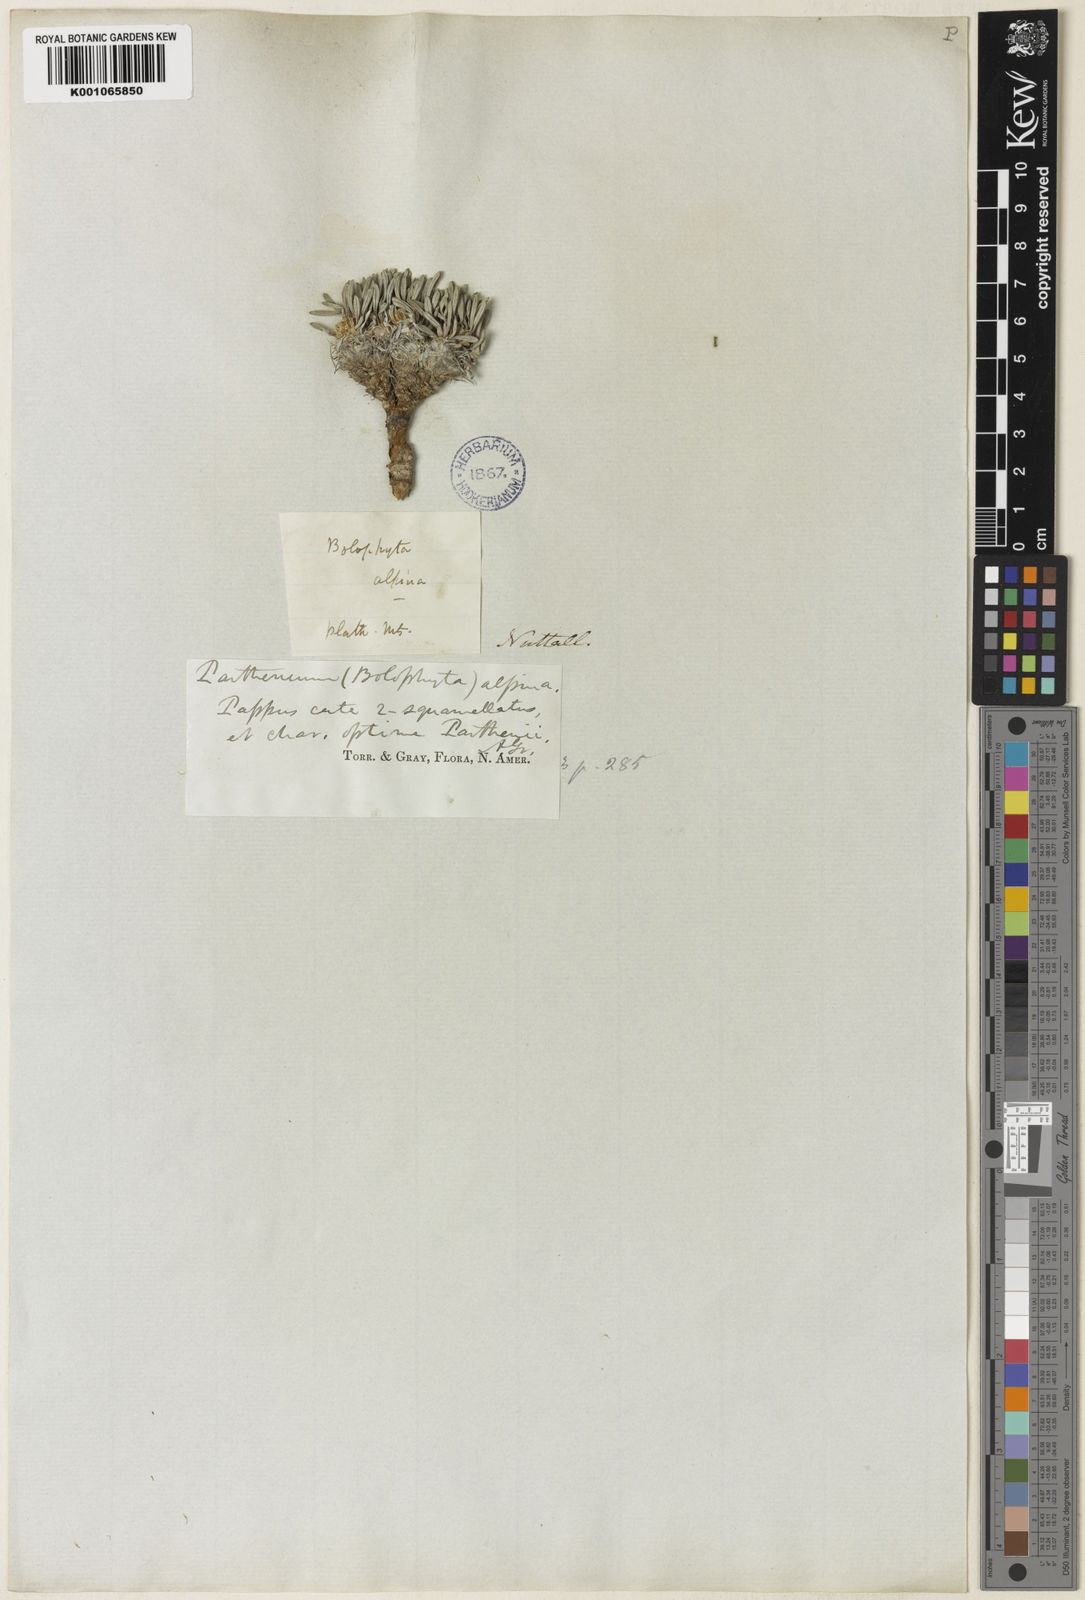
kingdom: Plantae
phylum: Tracheophyta
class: Magnoliopsida
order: Asterales
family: Asteraceae
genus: Parthenium
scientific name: Parthenium alpinum
